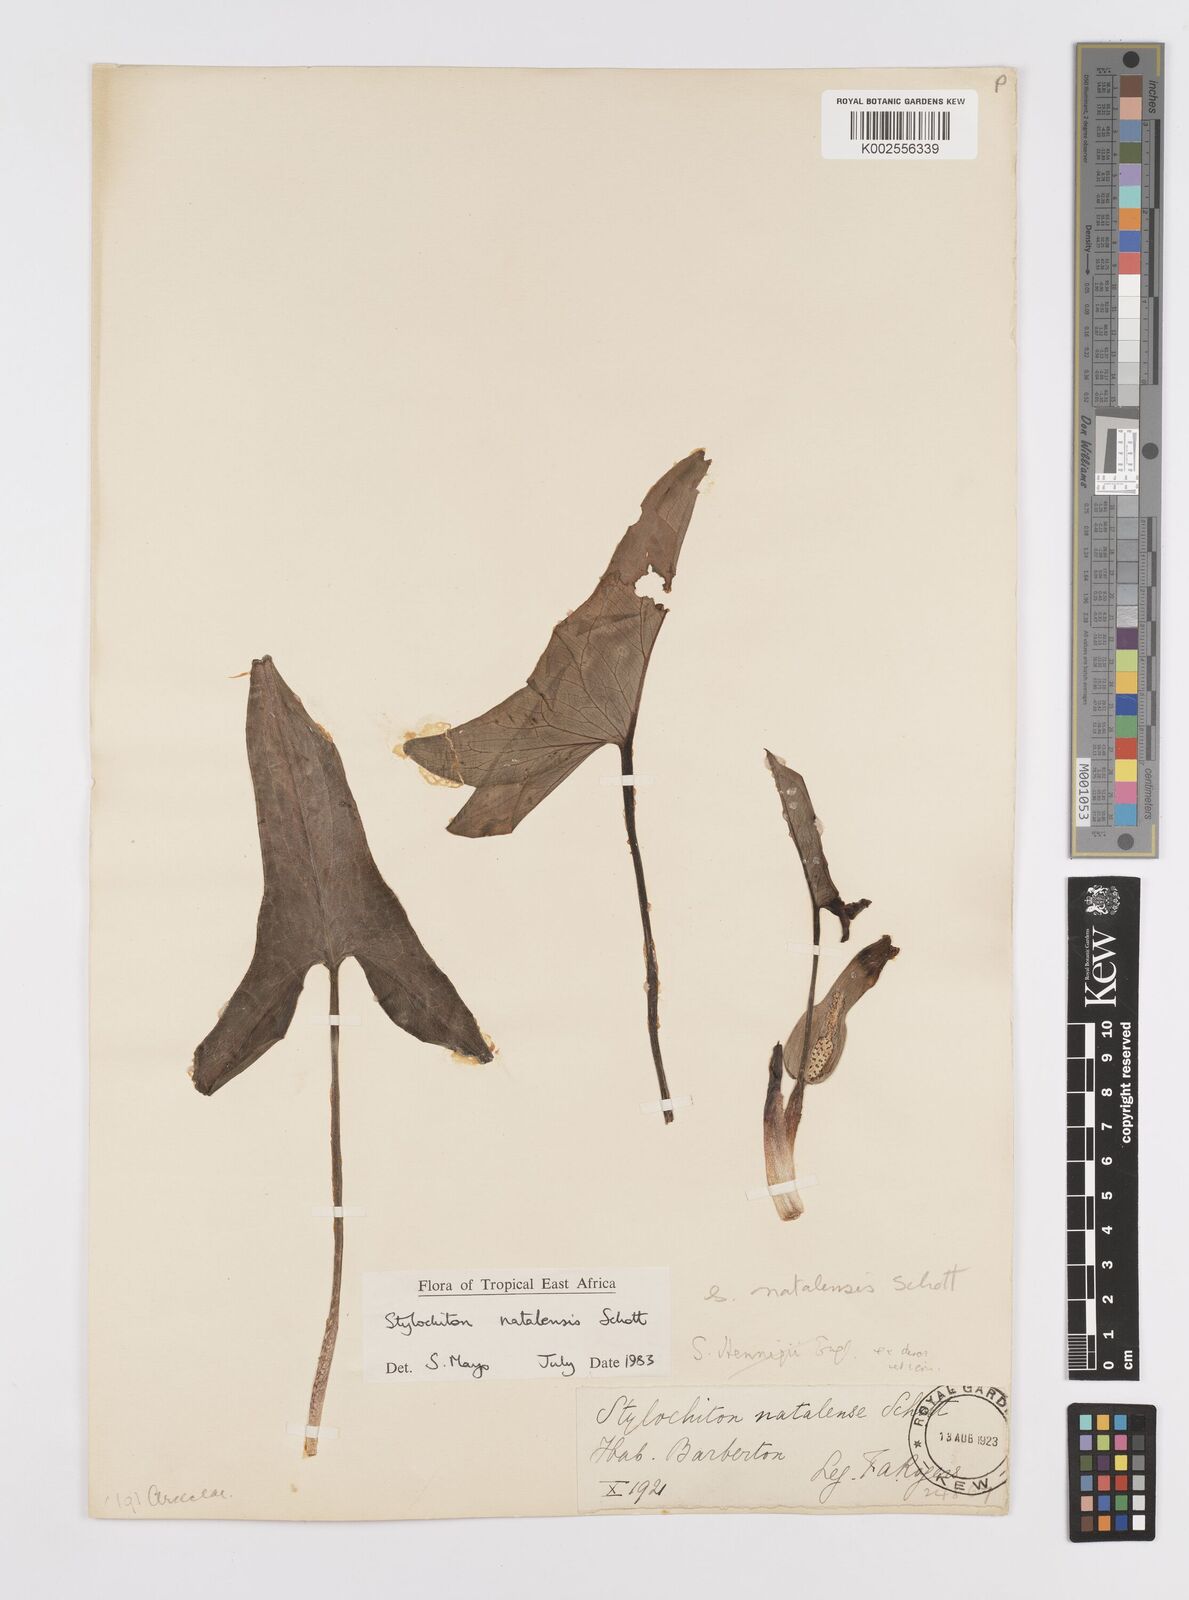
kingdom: Plantae
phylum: Tracheophyta
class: Liliopsida
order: Alismatales
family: Araceae
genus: Stylochaeton
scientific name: Stylochaeton natalense
